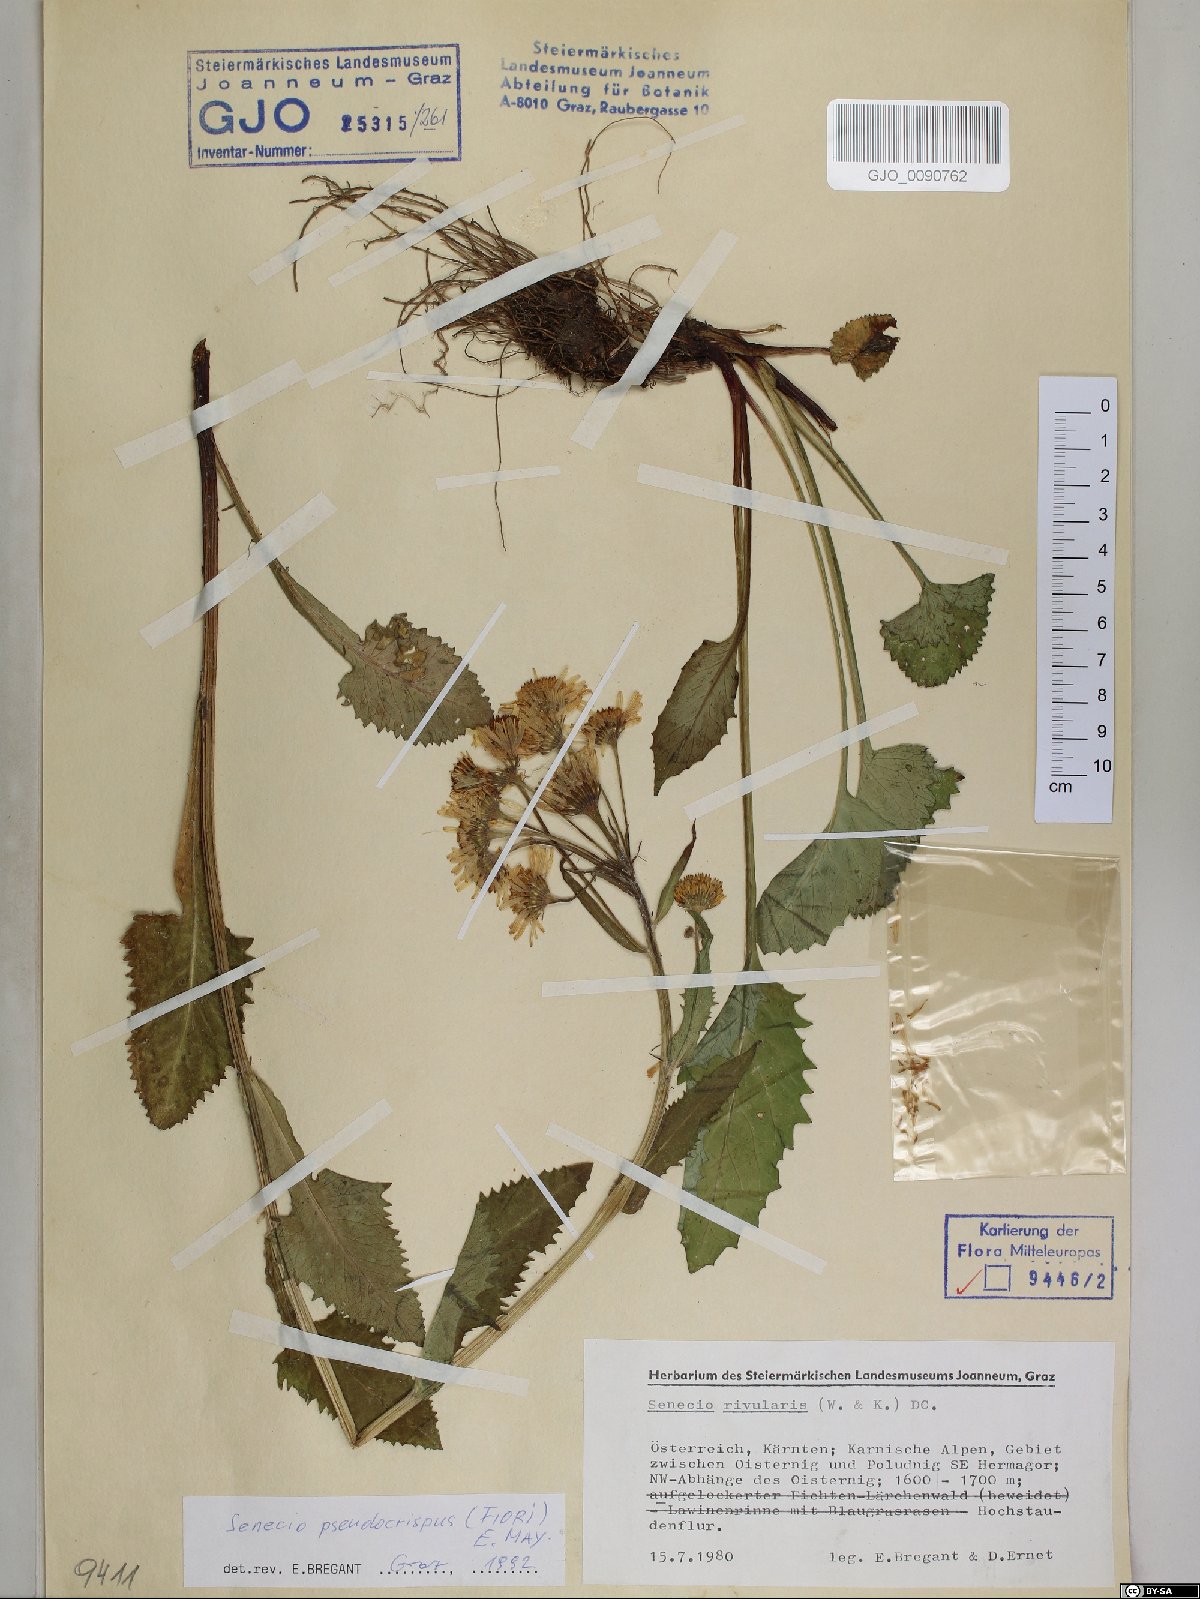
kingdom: Plantae
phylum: Tracheophyta
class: Magnoliopsida
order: Asterales
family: Asteraceae
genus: Tephroseris
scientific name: Tephroseris longifolia
